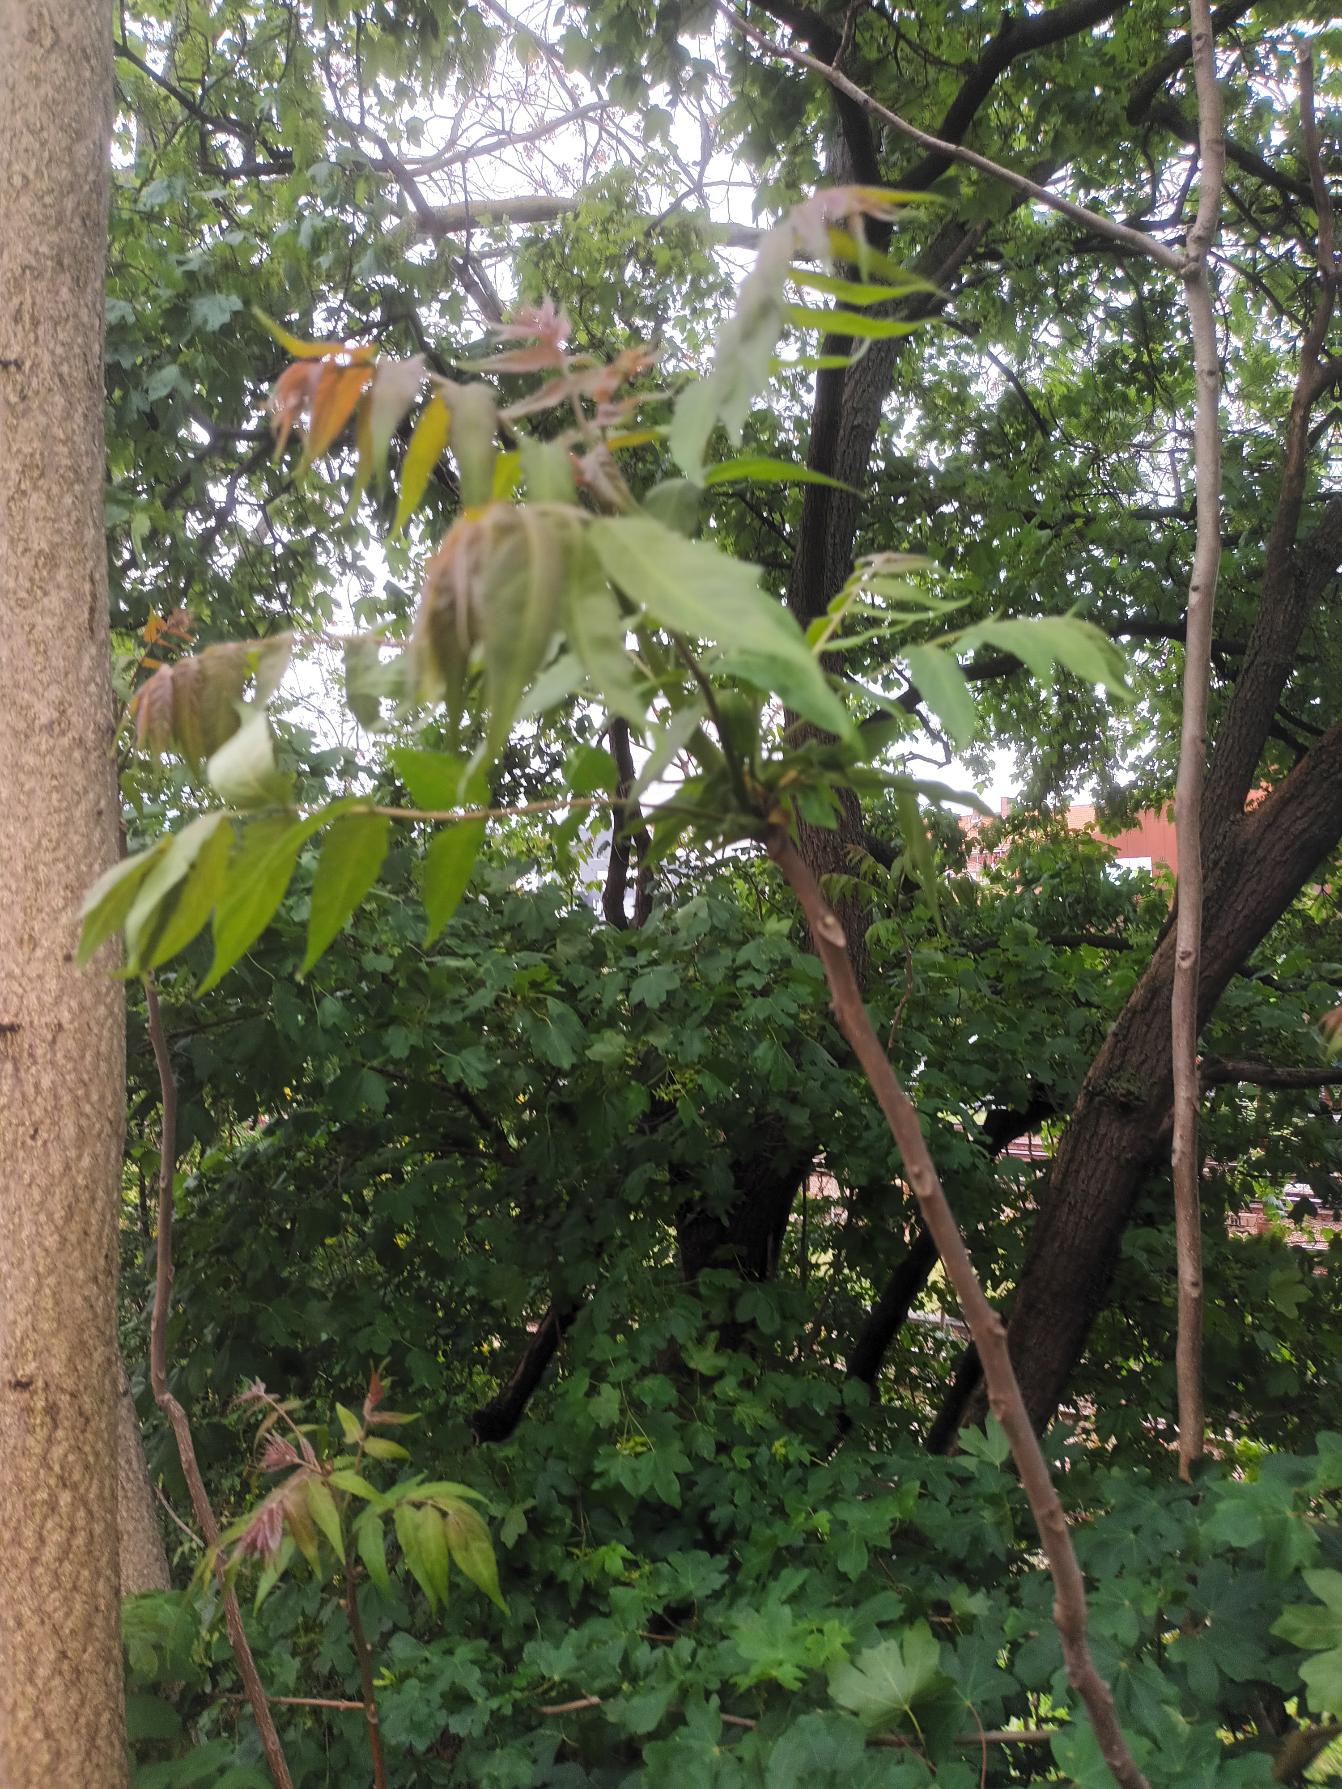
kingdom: Plantae
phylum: Tracheophyta
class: Magnoliopsida
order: Sapindales
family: Simaroubaceae
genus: Ailanthus
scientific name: Ailanthus altissima
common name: Skyrækker
